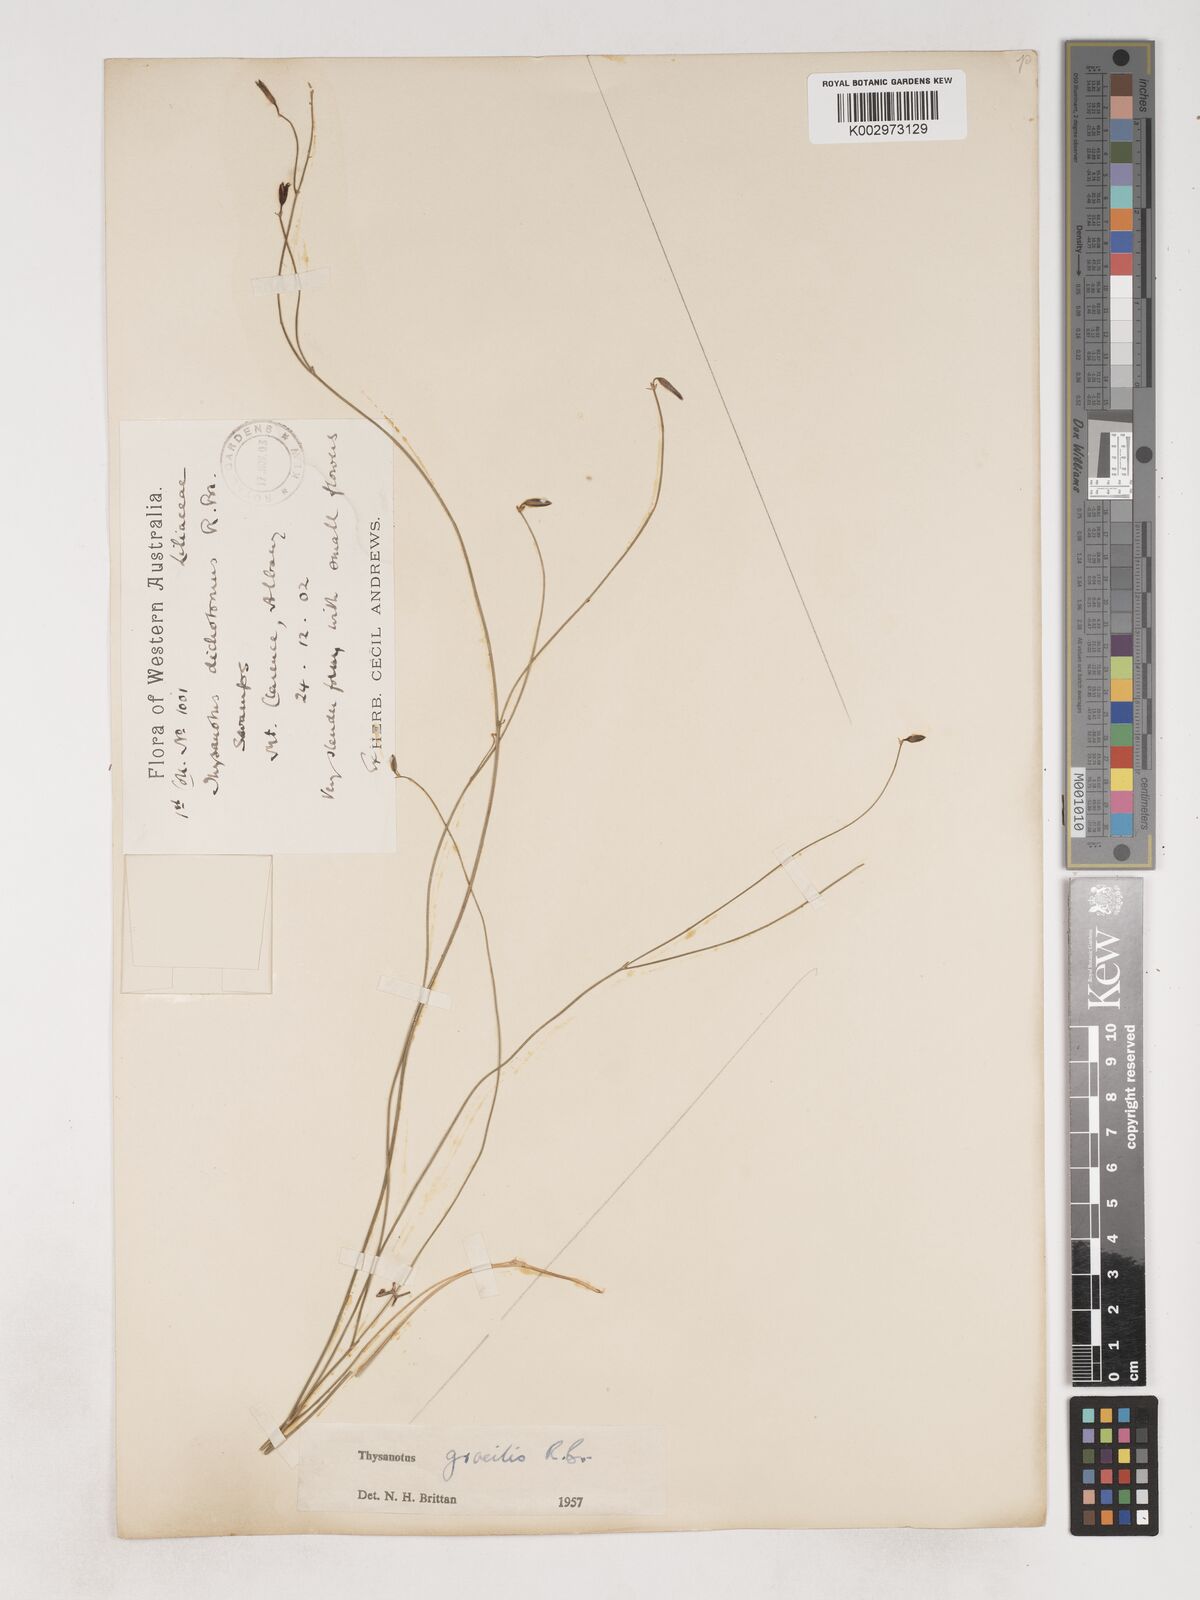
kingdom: Plantae
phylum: Tracheophyta
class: Liliopsida
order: Asparagales
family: Asparagaceae
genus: Thysanotus
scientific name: Thysanotus gracilis
